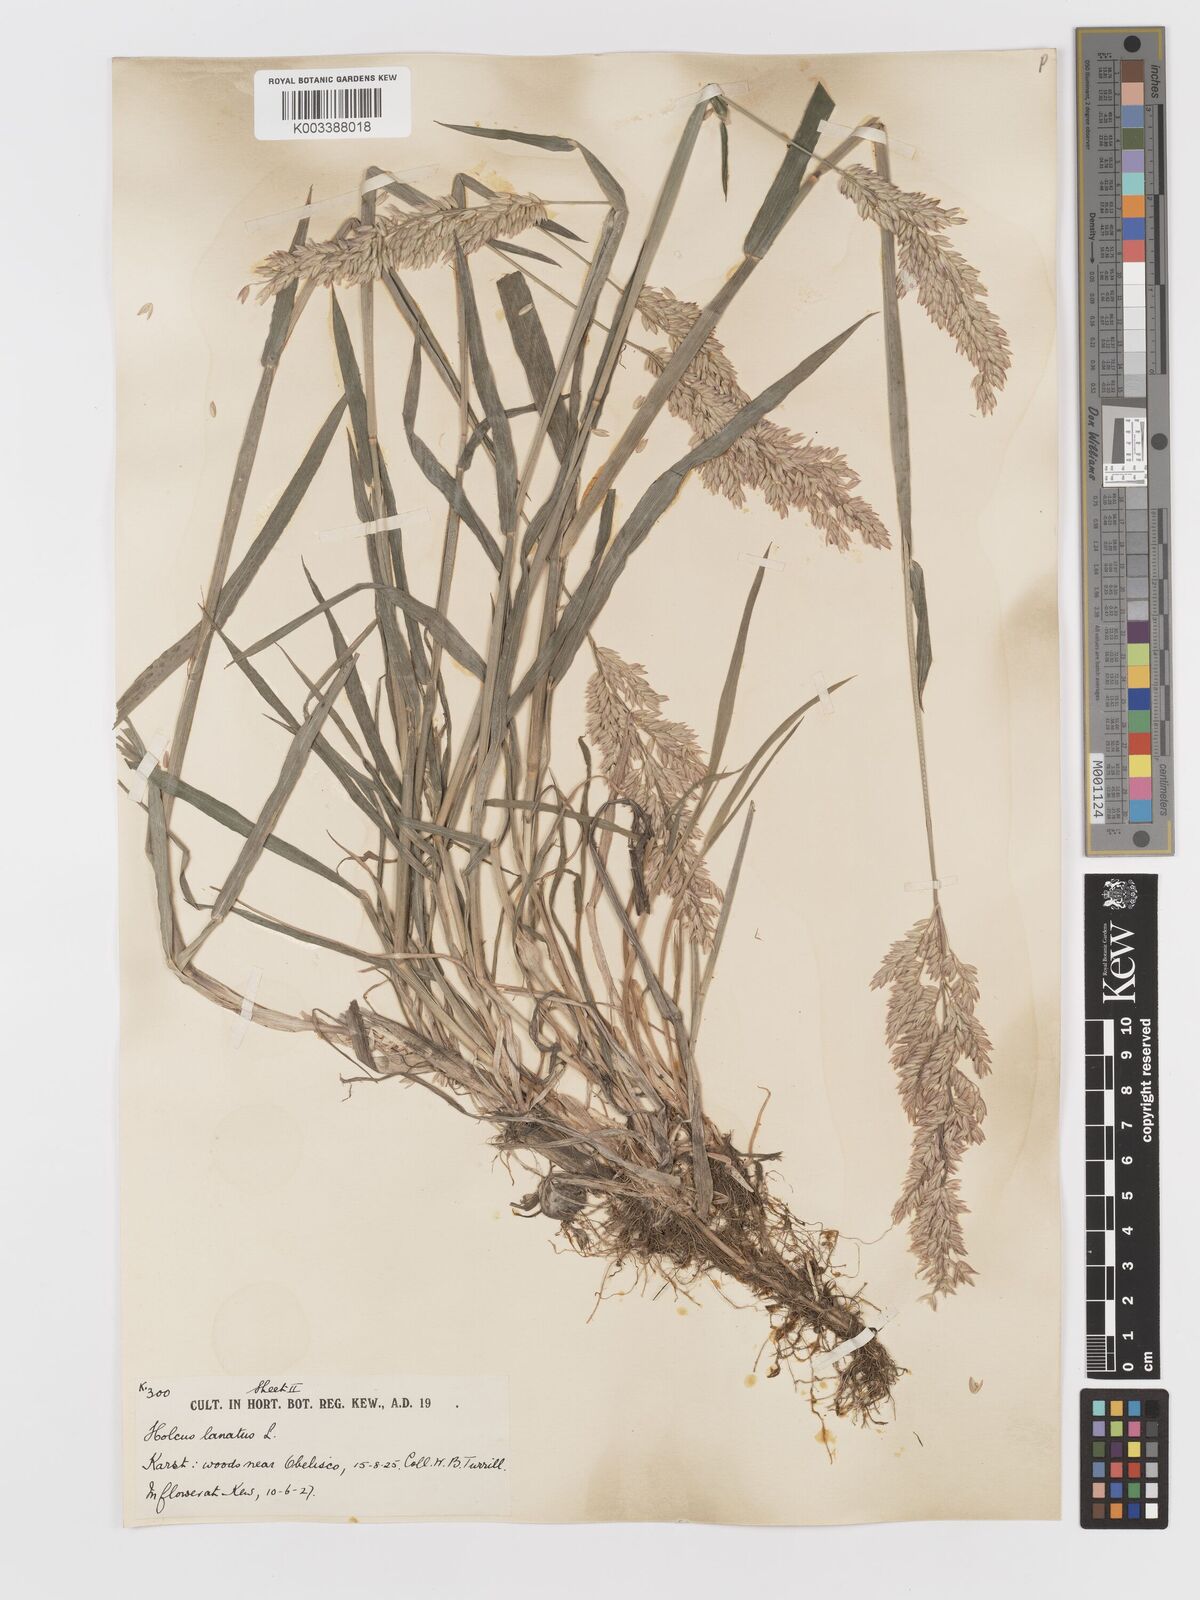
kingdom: Plantae
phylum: Tracheophyta
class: Liliopsida
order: Poales
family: Poaceae
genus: Holcus
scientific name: Holcus lanatus
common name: Yorkshire-fog
